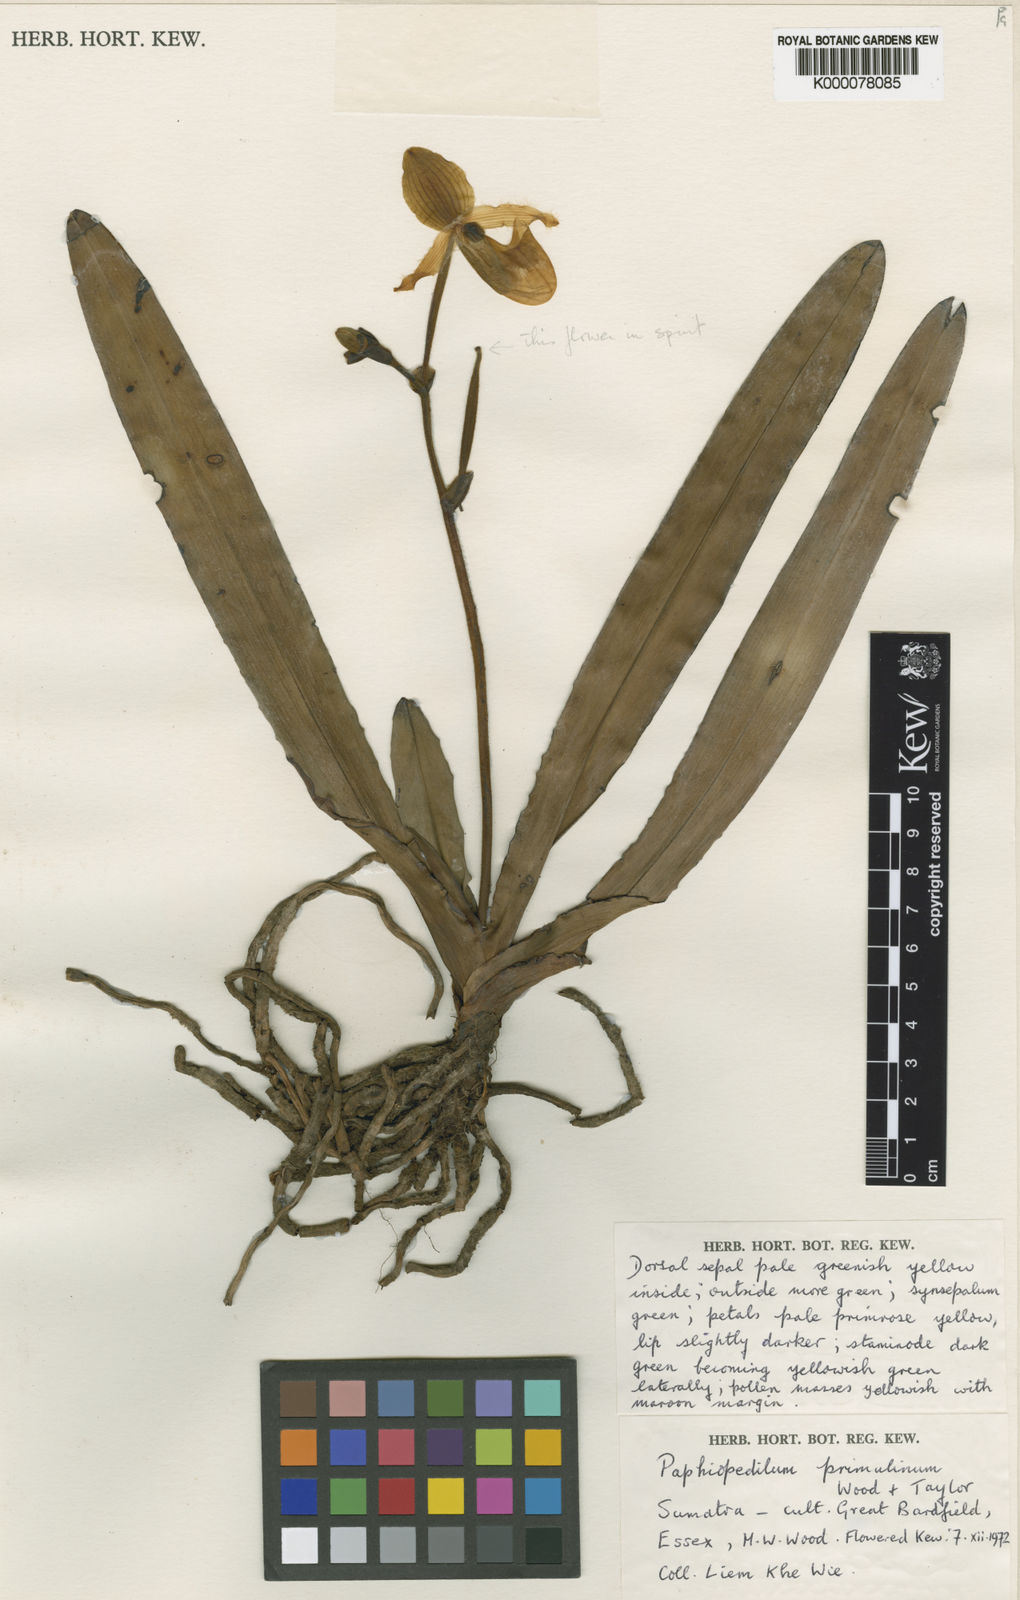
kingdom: Plantae
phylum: Tracheophyta
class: Liliopsida
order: Asparagales
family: Orchidaceae
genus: Paphiopedilum
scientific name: Paphiopedilum primulinum
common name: Primrose yellow paphiopedilum
